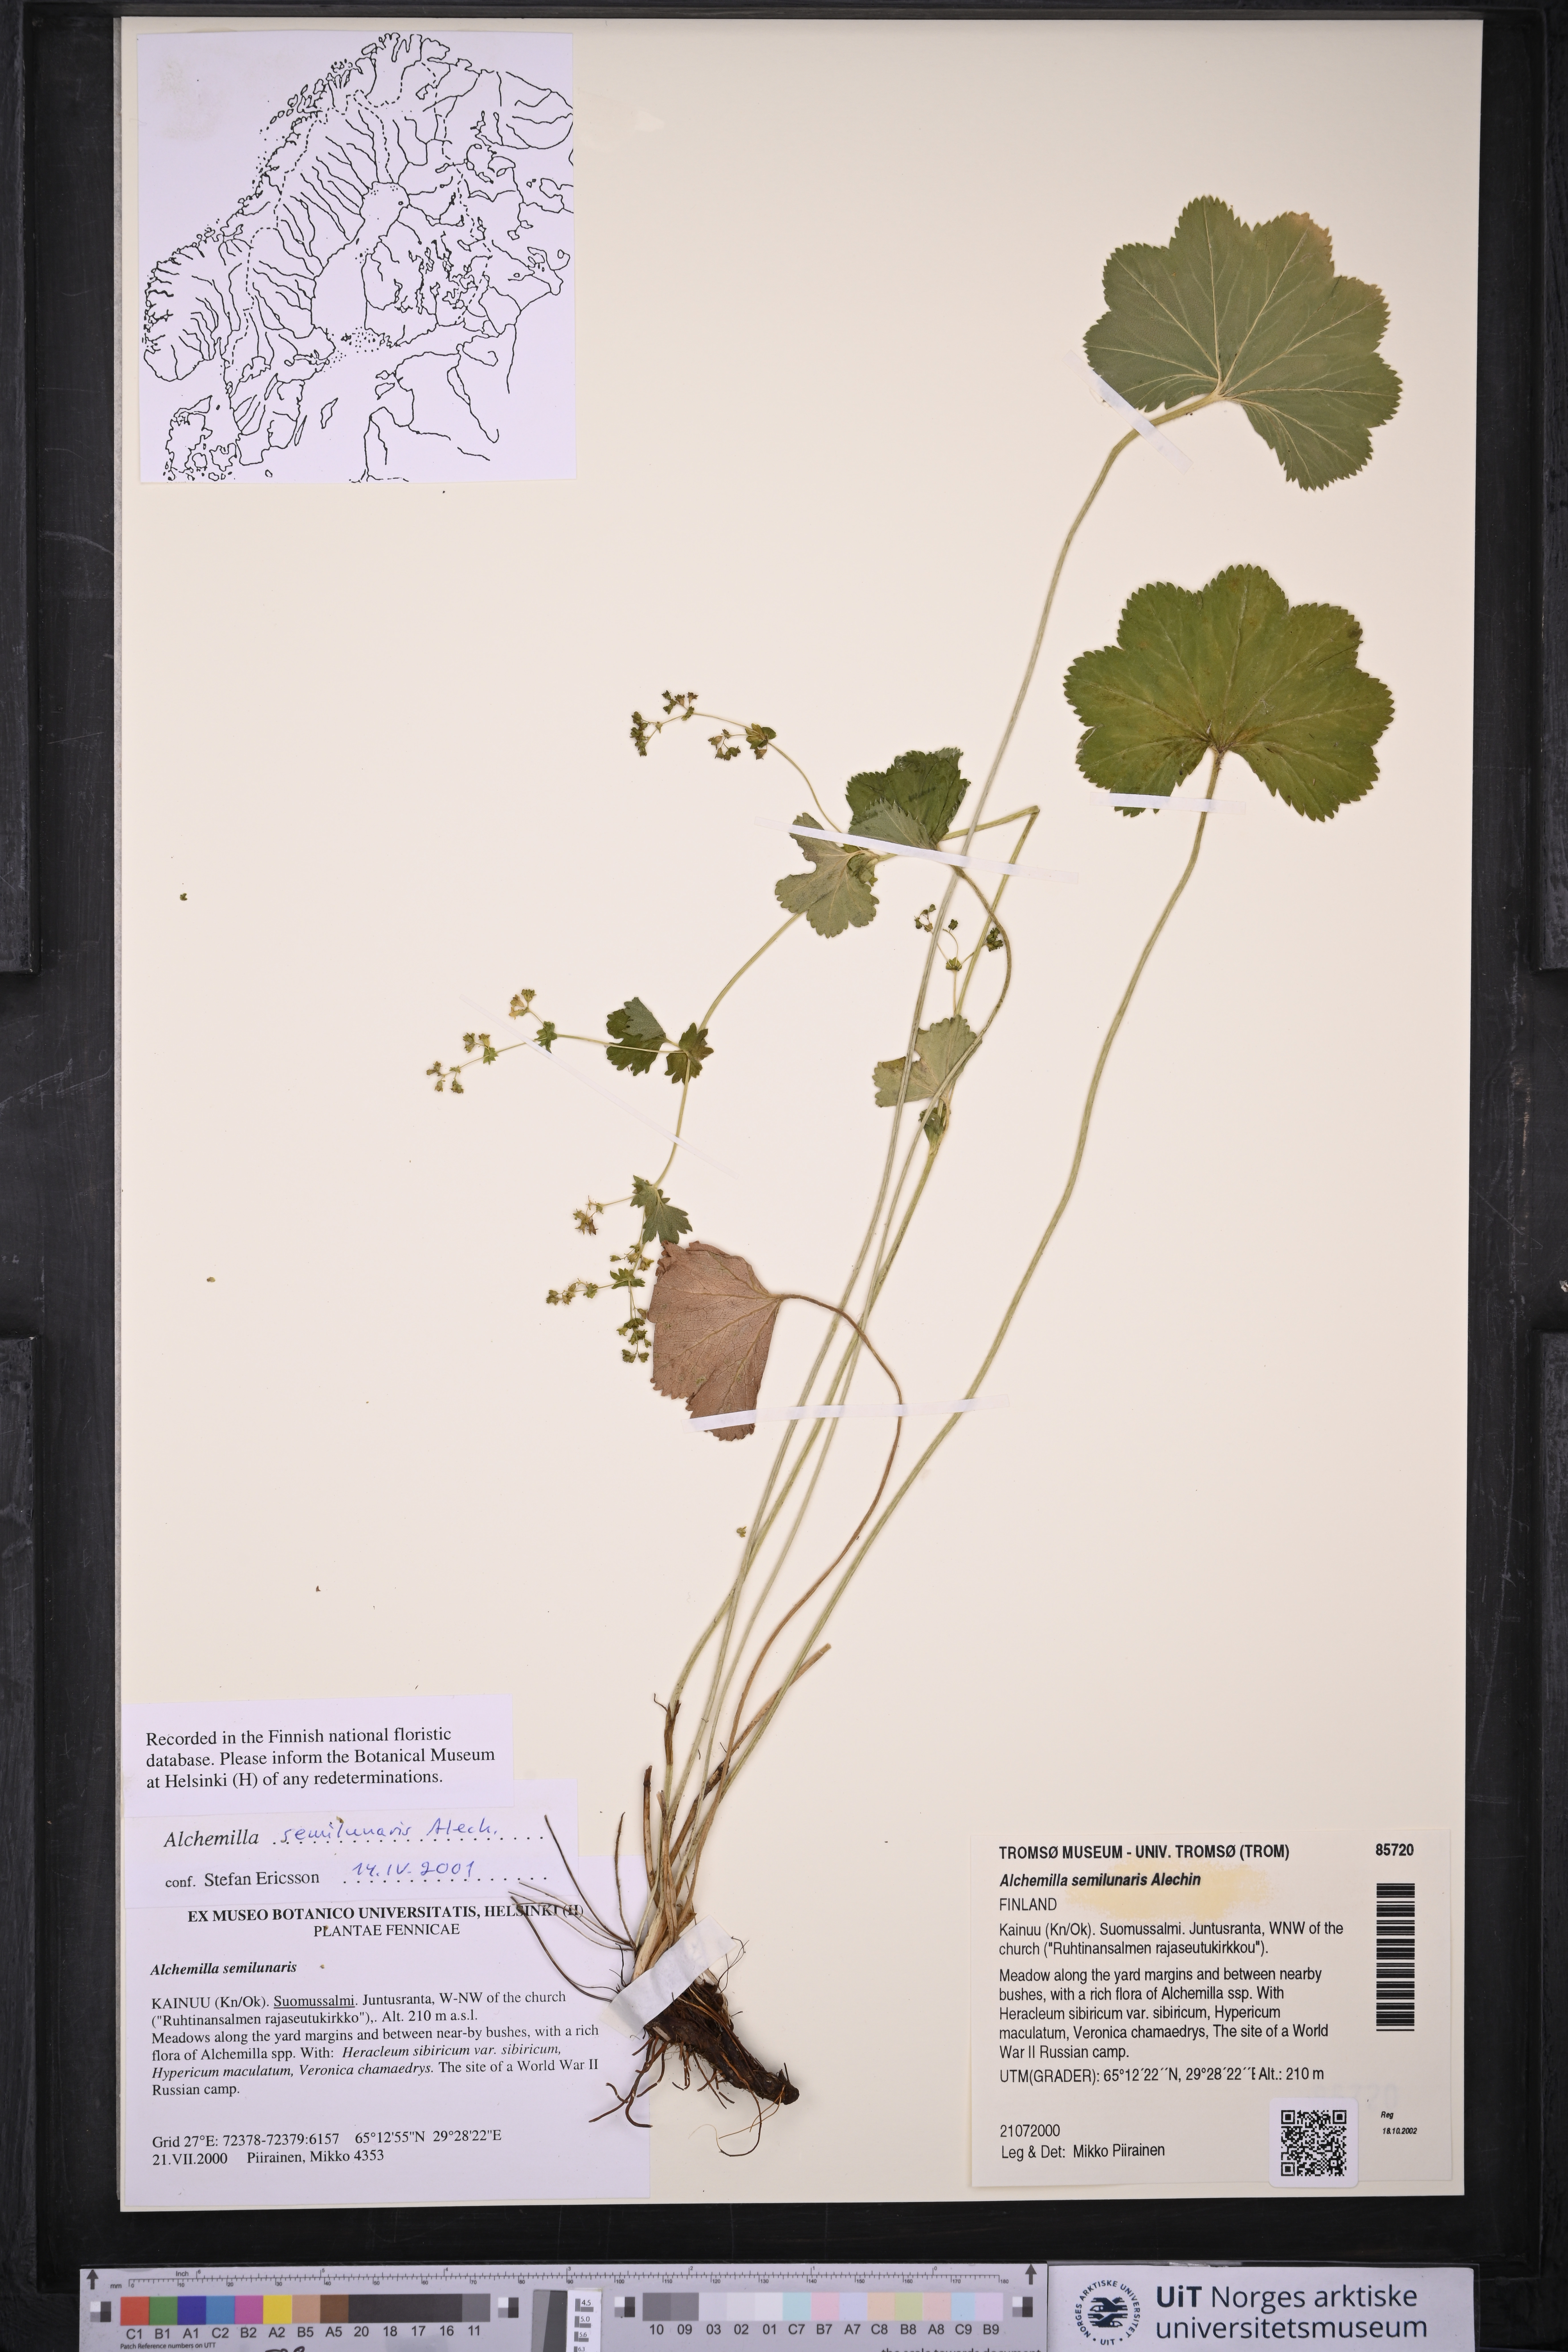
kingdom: Plantae
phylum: Tracheophyta
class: Magnoliopsida
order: Rosales
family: Rosaceae
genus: Alchemilla
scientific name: Alchemilla semilunaris
